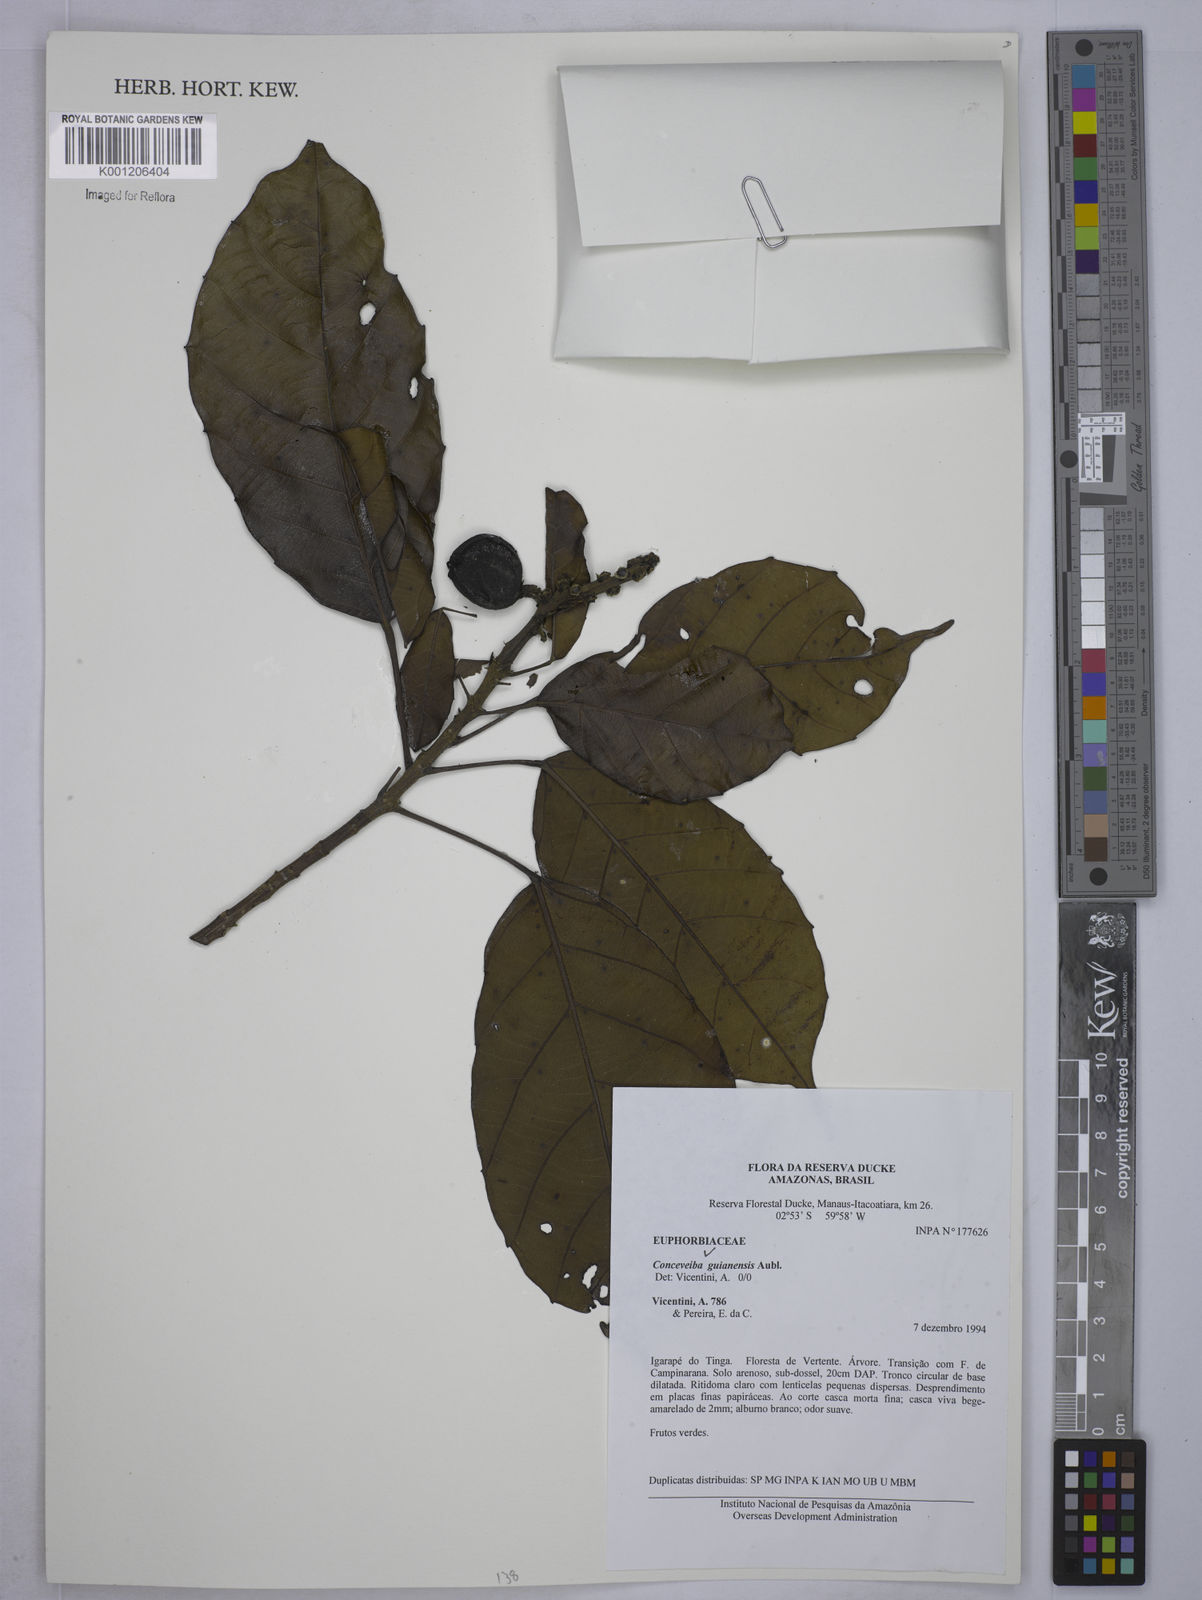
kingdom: Plantae
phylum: Tracheophyta
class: Magnoliopsida
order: Malpighiales
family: Euphorbiaceae
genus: Conceveiba
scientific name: Conceveiba guianensis
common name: Poatoru
